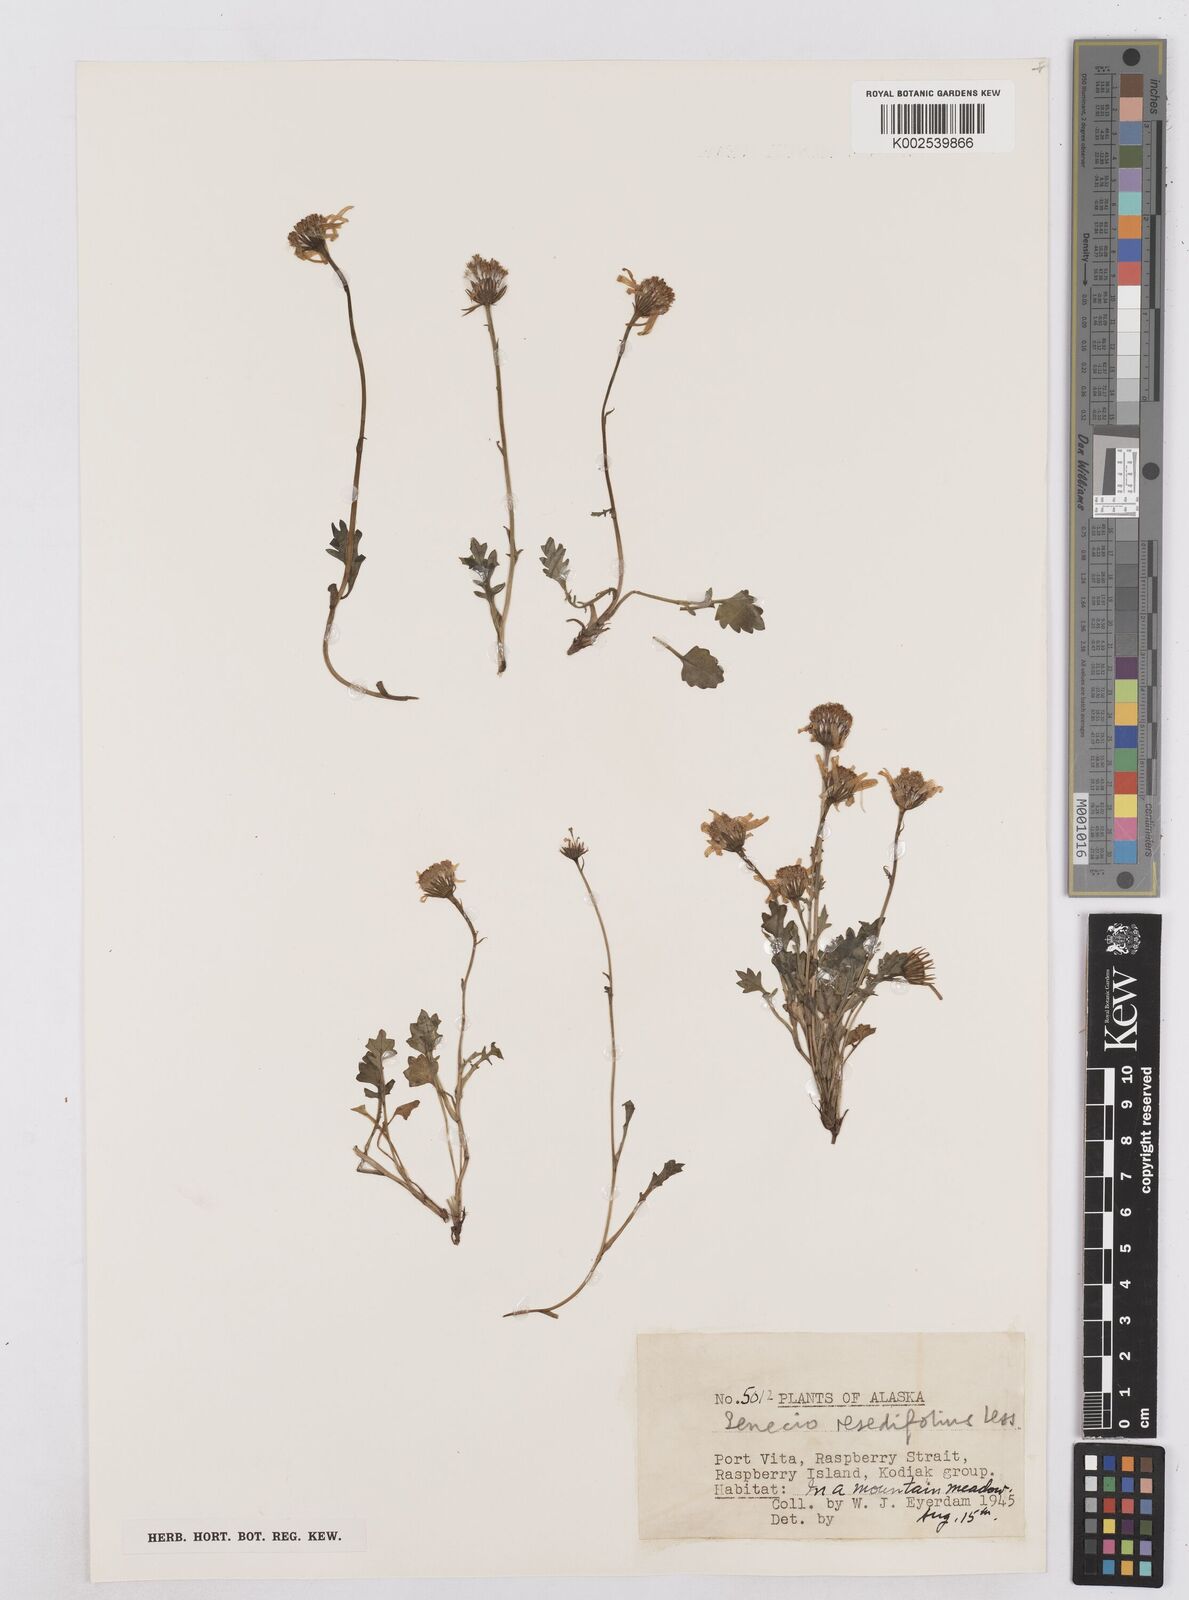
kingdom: Plantae
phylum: Tracheophyta
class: Magnoliopsida
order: Asterales
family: Asteraceae
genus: Packera
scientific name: Packera cymbalaria
